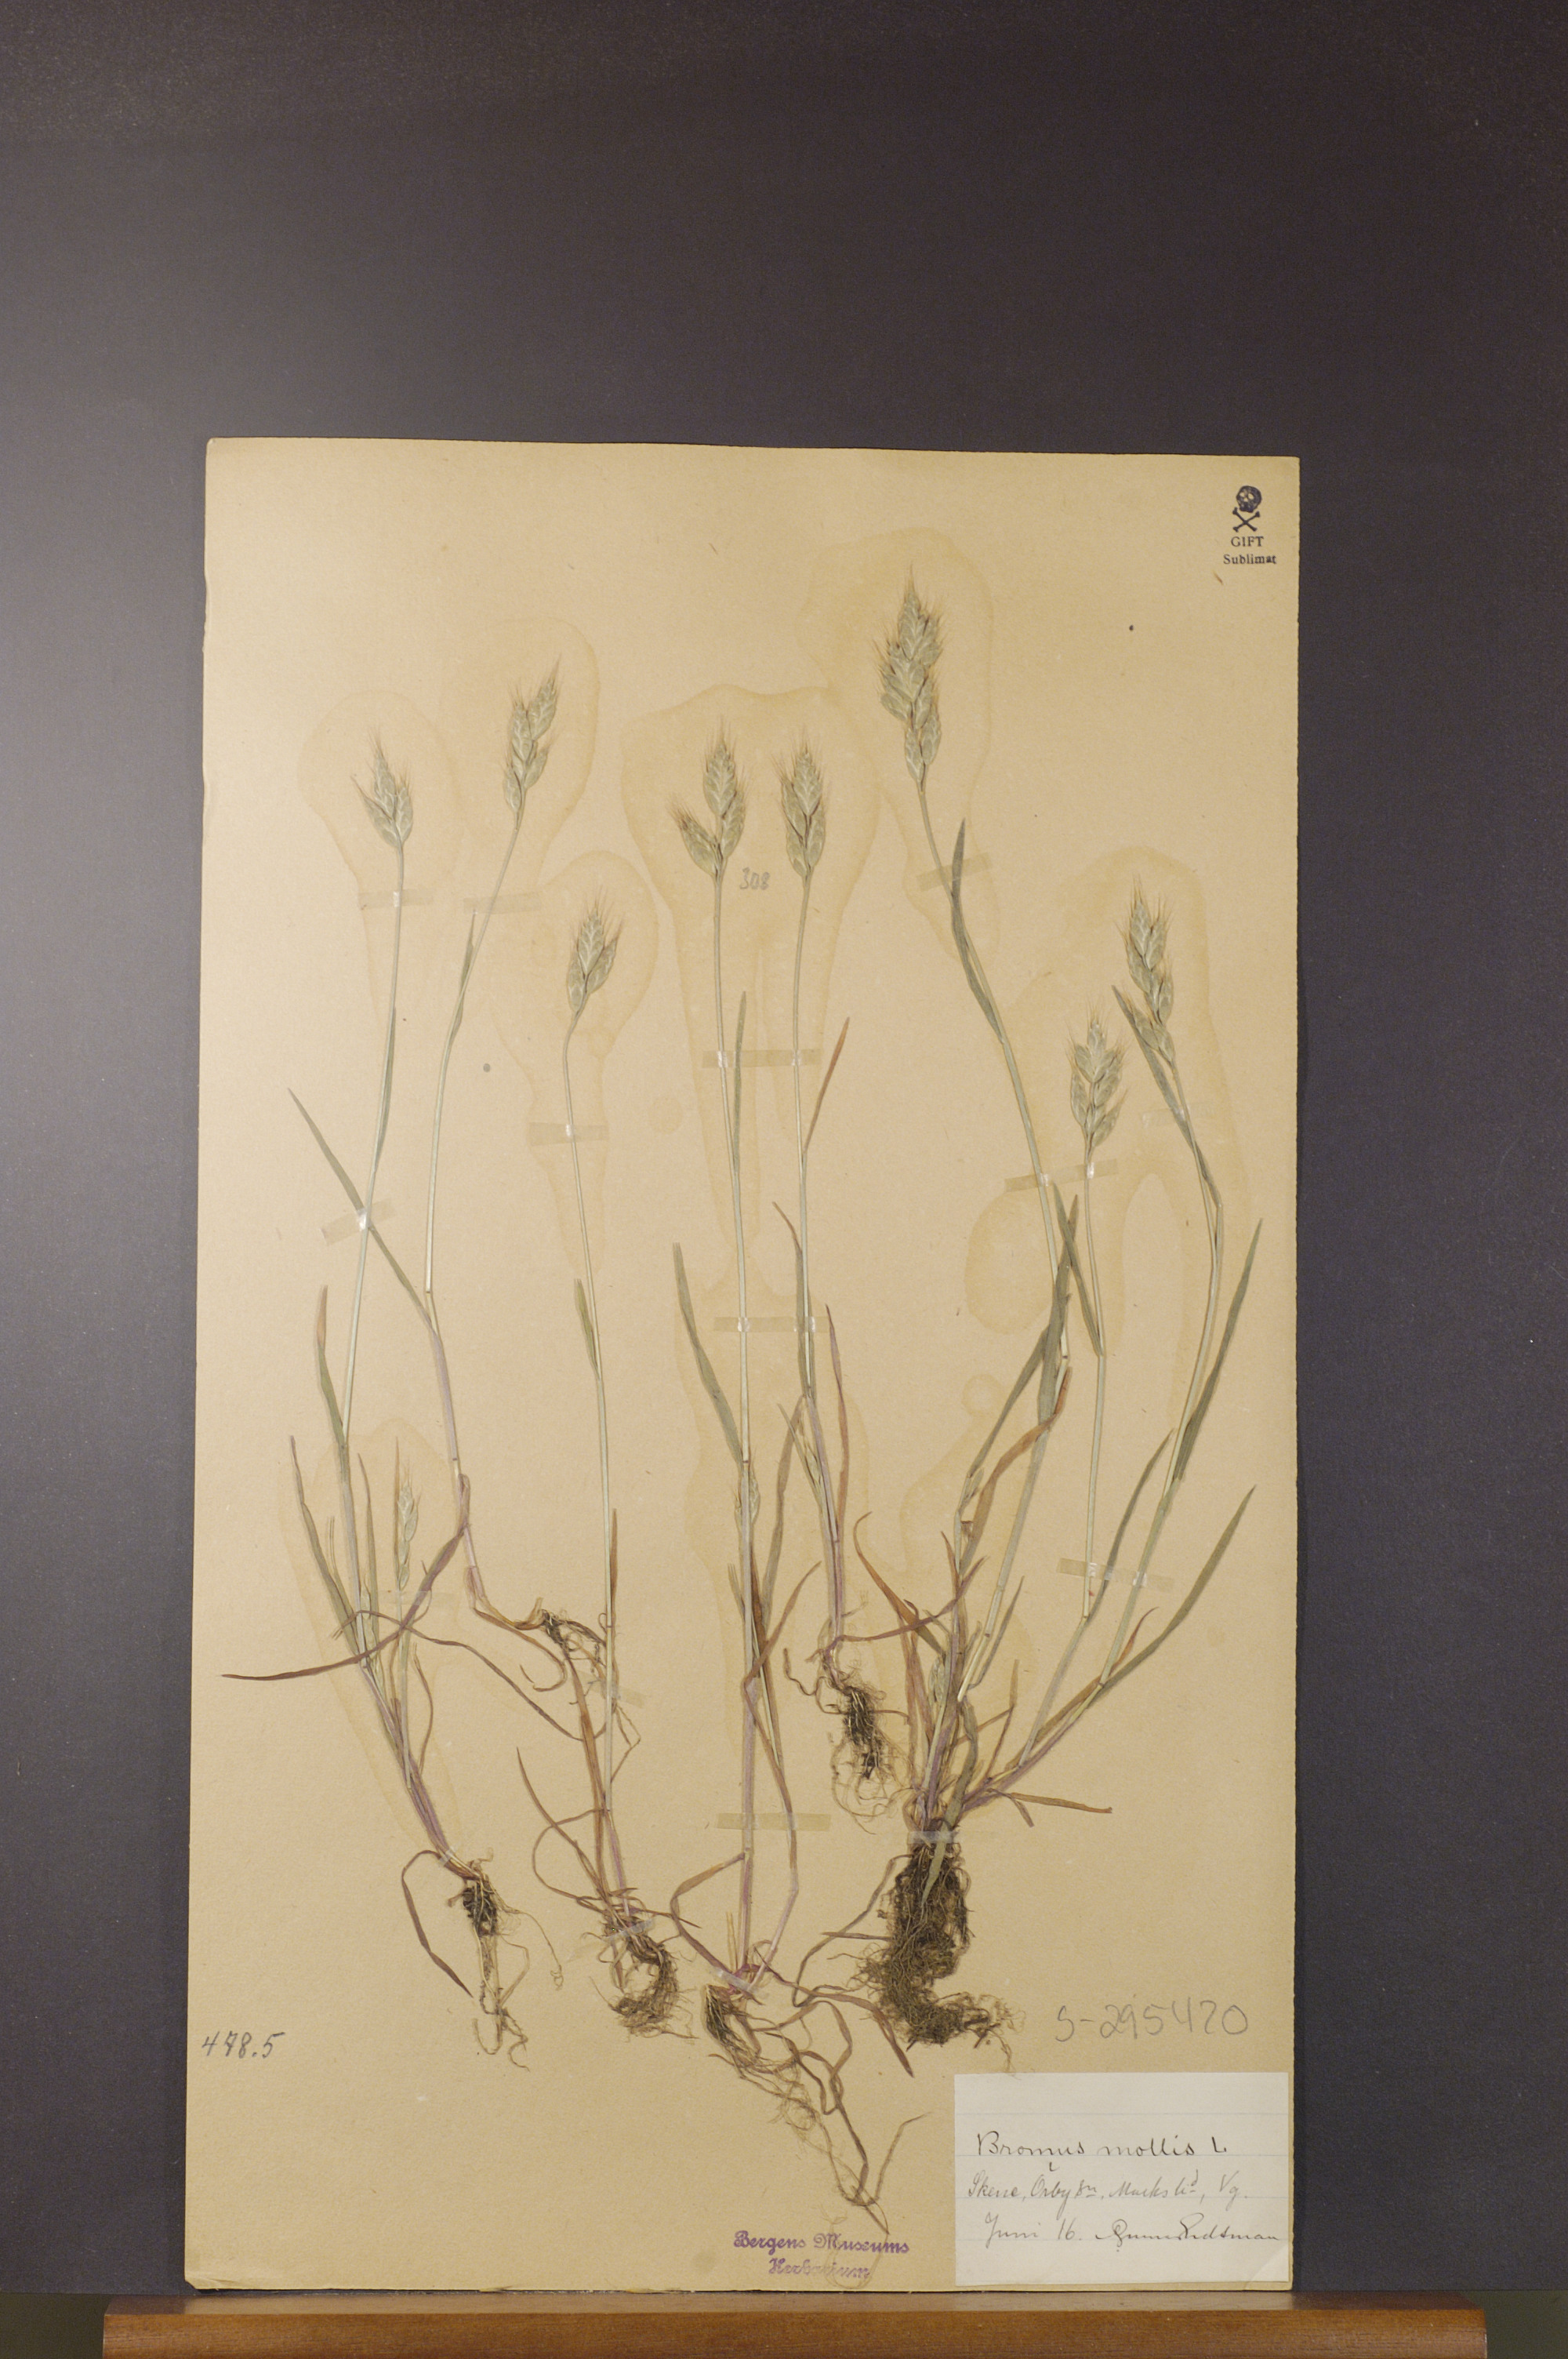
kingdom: Plantae
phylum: Tracheophyta
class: Liliopsida
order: Poales
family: Poaceae
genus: Bromus
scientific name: Bromus hordeaceus
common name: Soft brome
